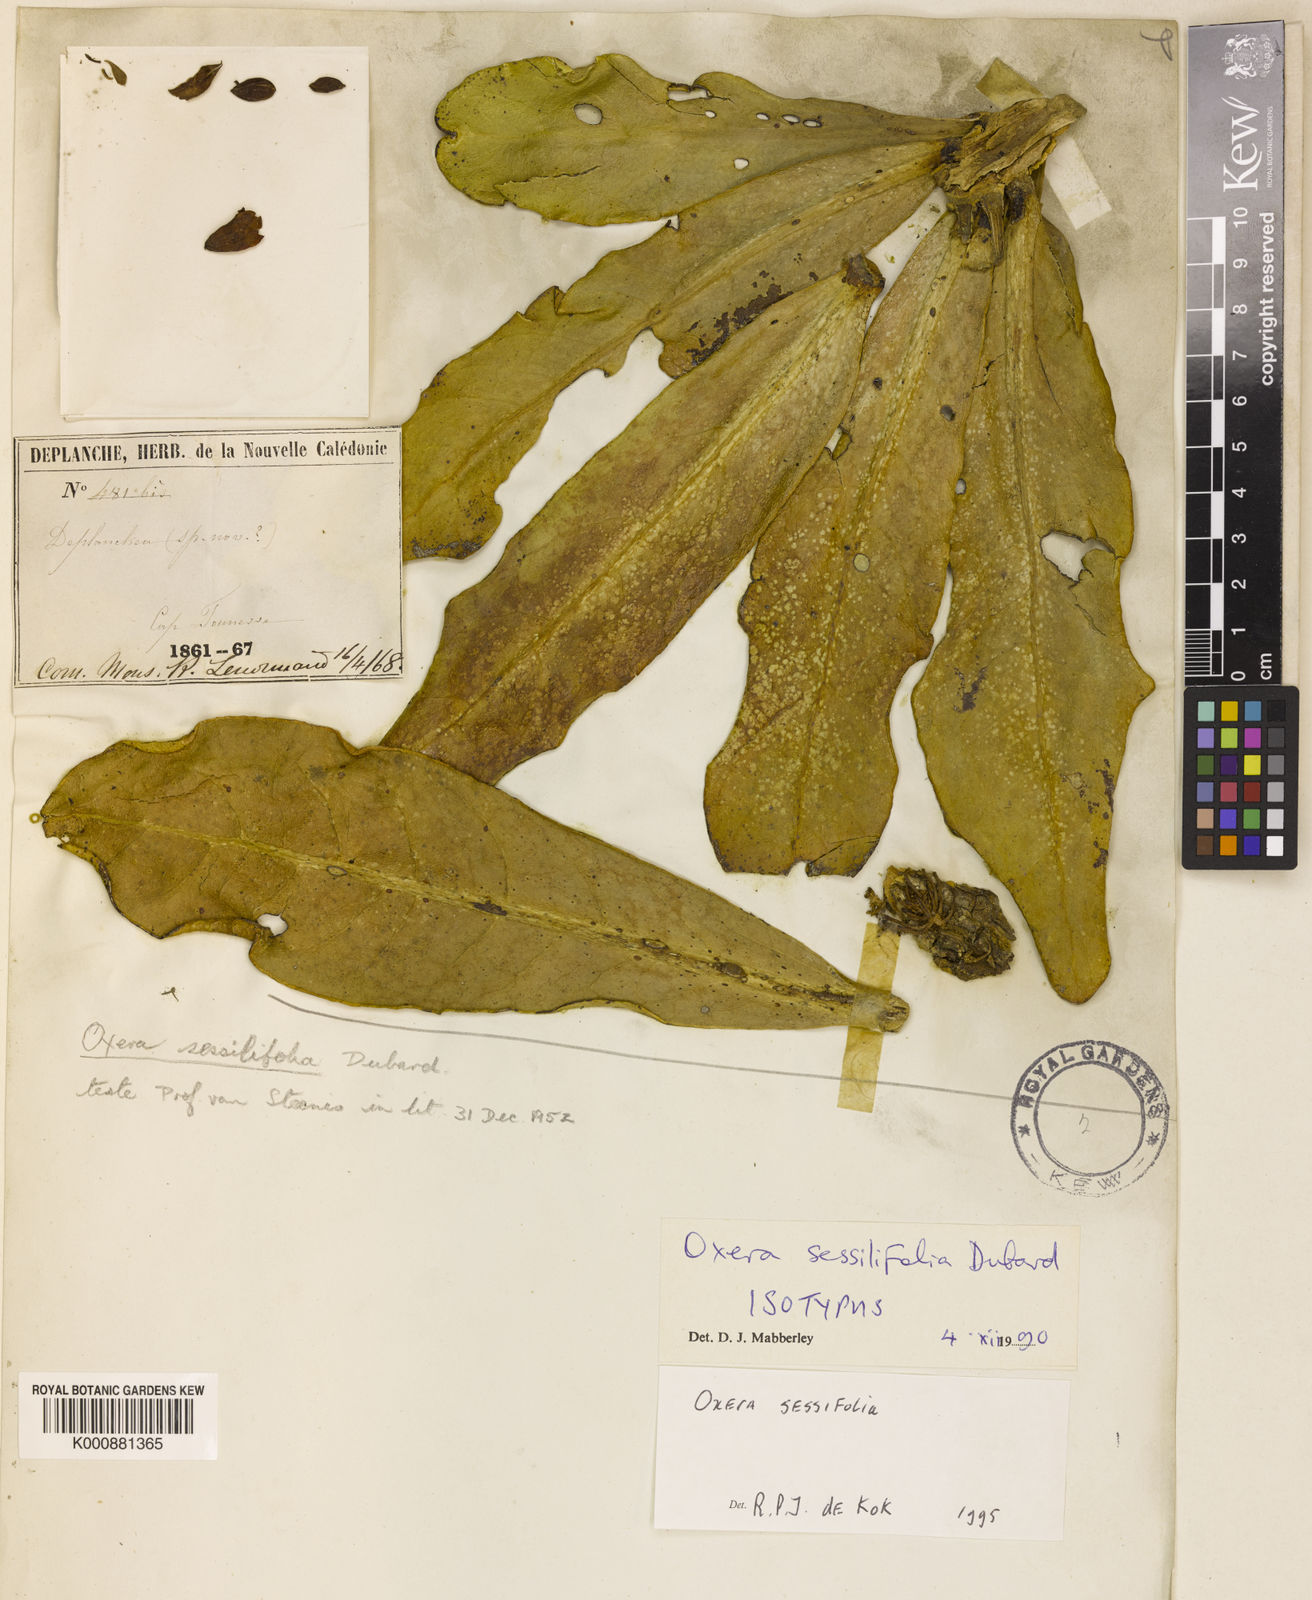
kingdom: Plantae
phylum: Tracheophyta
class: Magnoliopsida
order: Lamiales
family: Lamiaceae
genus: Oxera
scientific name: Oxera sessilifolia
